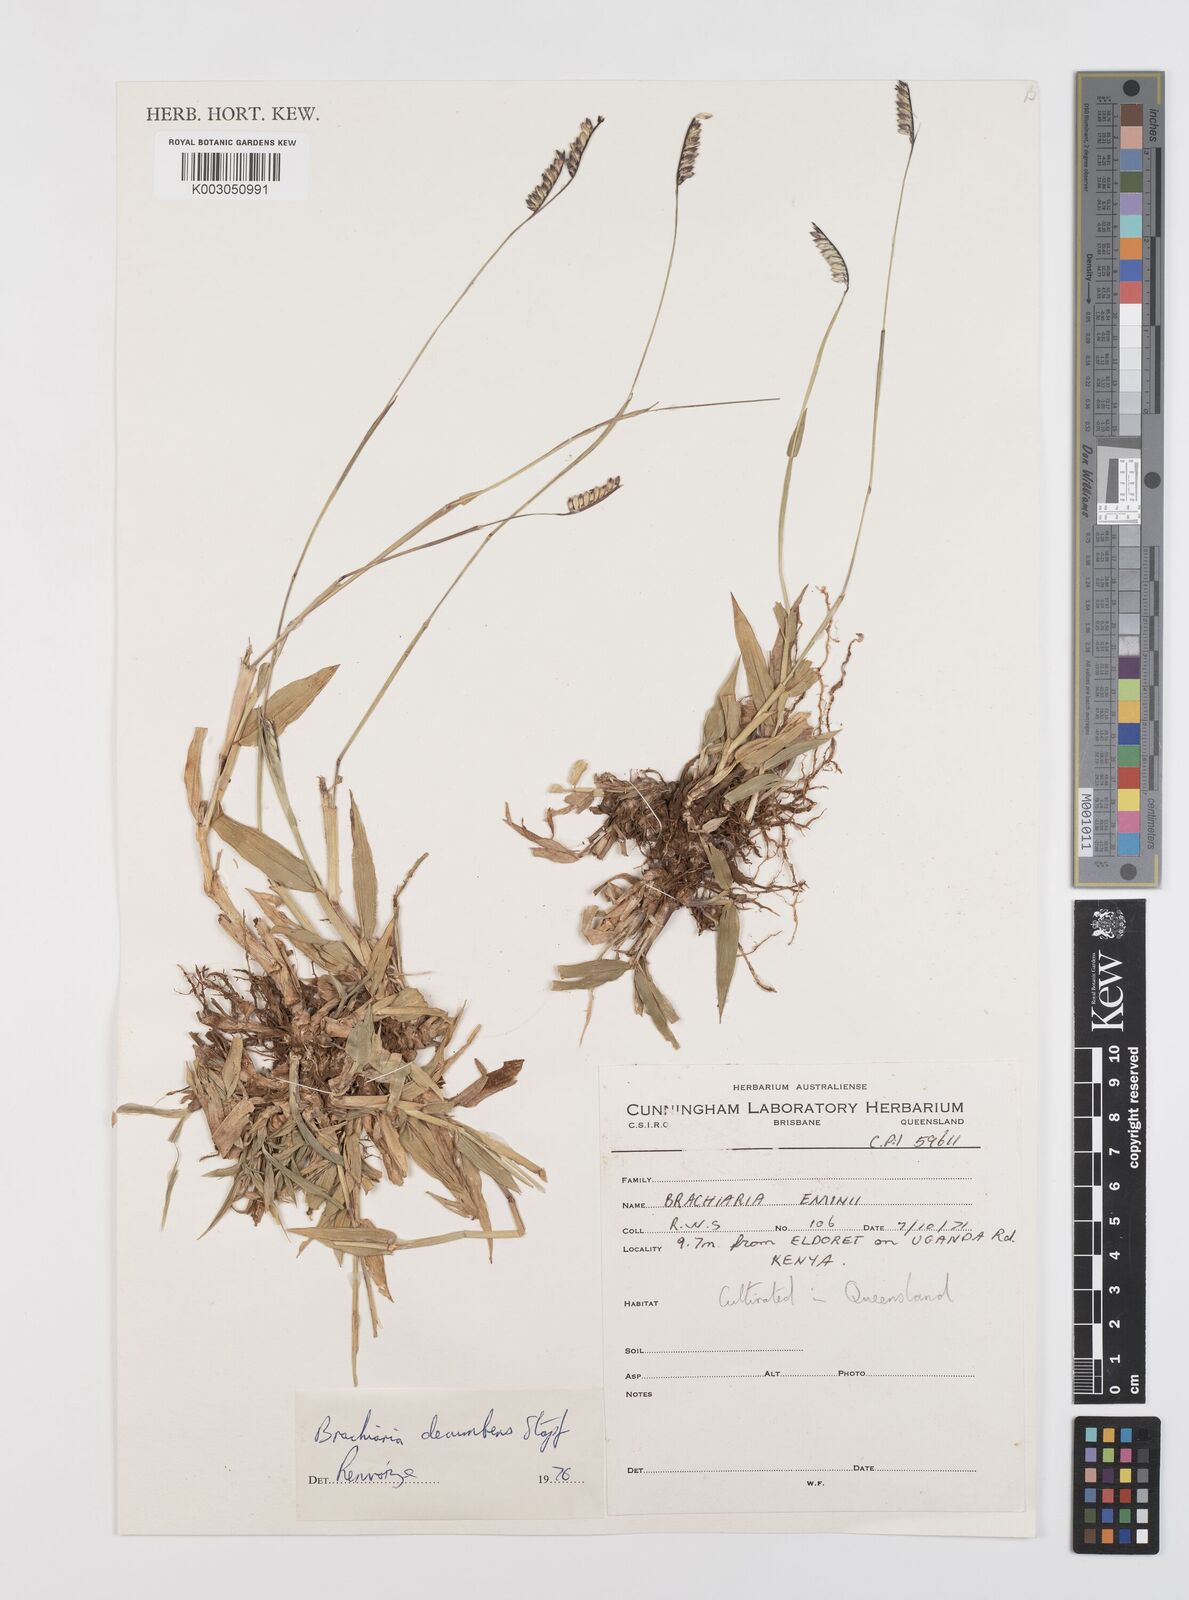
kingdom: Plantae
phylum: Tracheophyta
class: Liliopsida
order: Poales
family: Poaceae
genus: Urochloa
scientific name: Urochloa brizantha
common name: Palisade signalgrass
